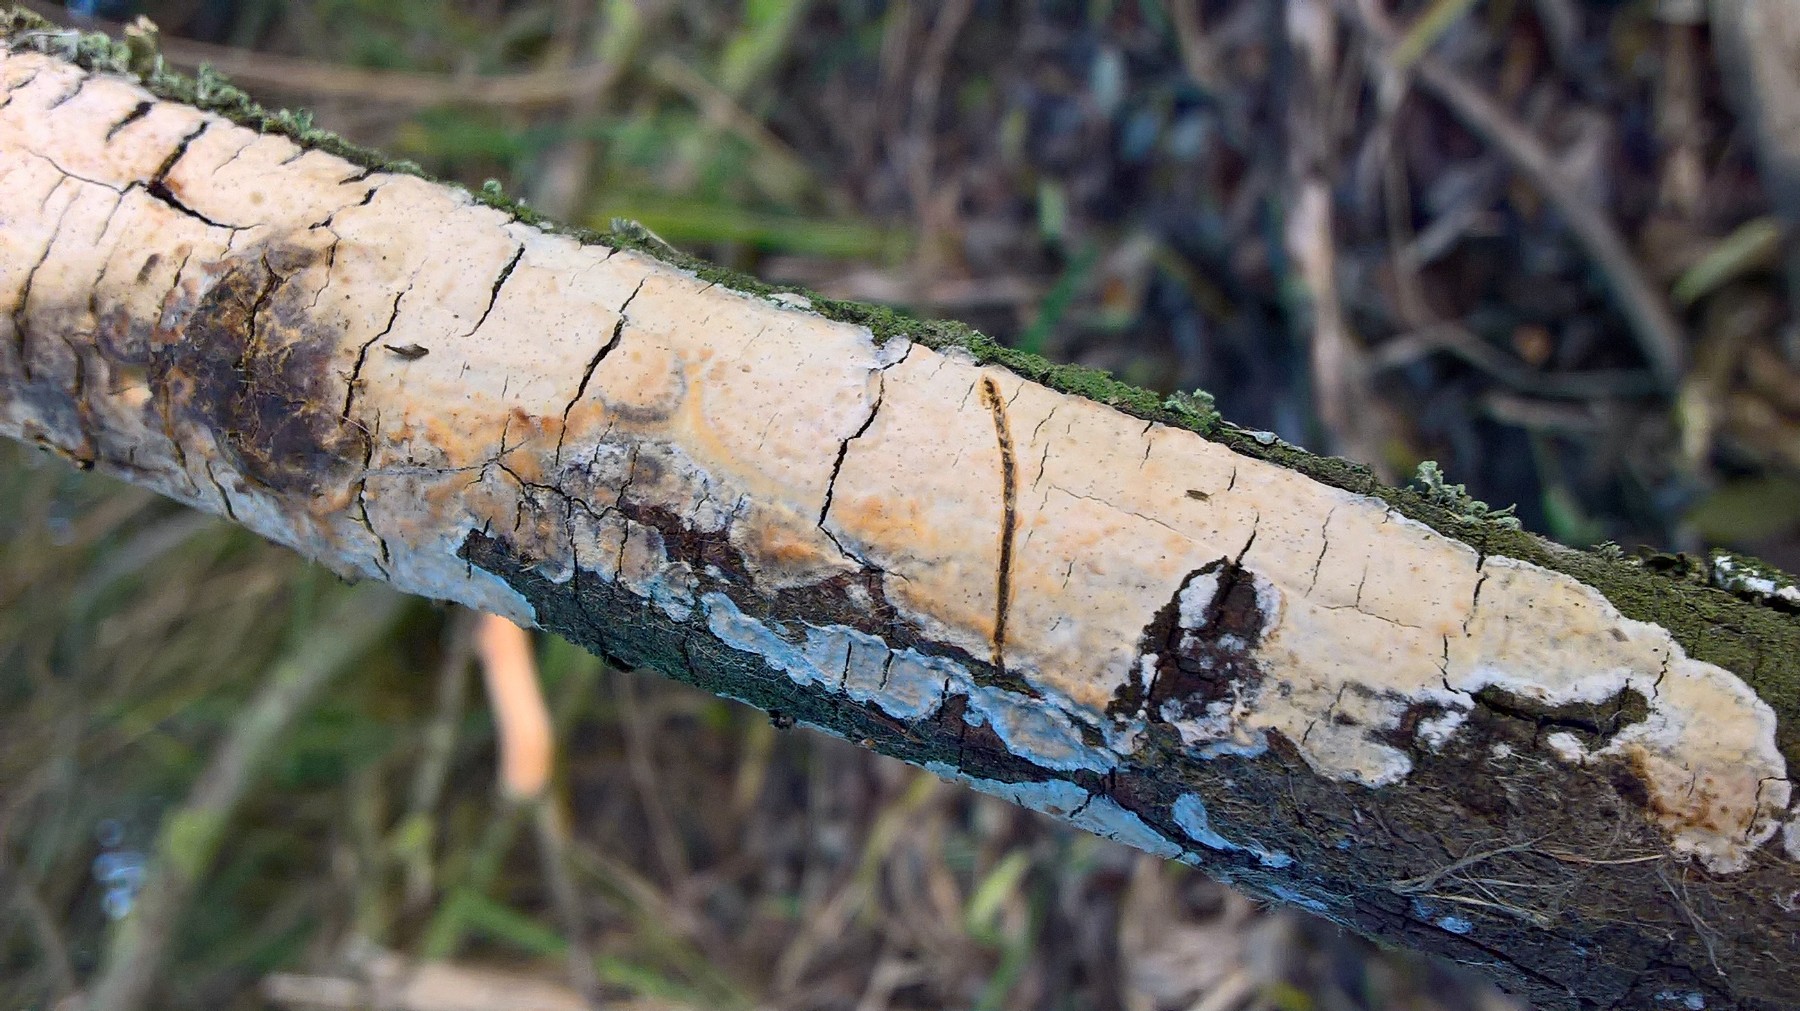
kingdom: Fungi
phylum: Basidiomycota
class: Agaricomycetes
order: Corticiales
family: Corticiaceae
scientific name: Corticiaceae
